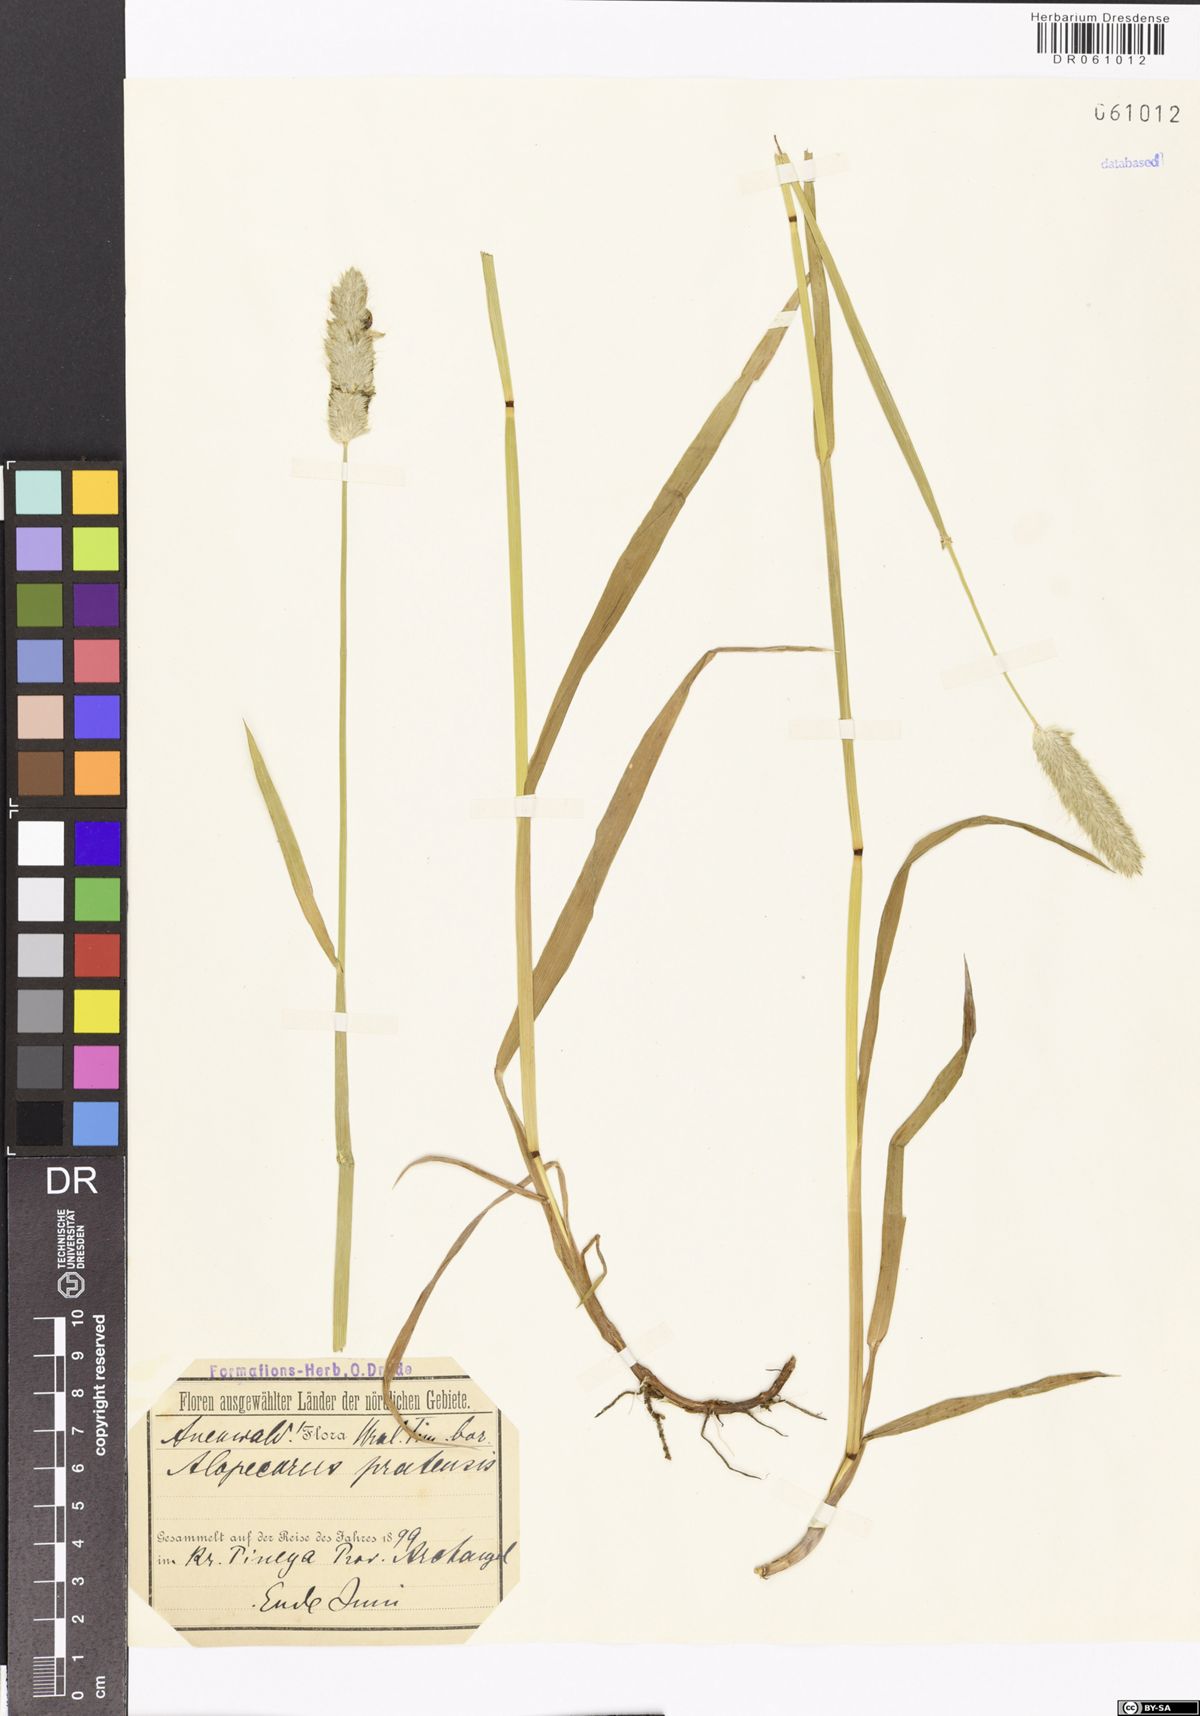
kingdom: Plantae
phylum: Tracheophyta
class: Liliopsida
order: Poales
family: Poaceae
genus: Alopecurus
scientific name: Alopecurus pratensis
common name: Meadow foxtail
